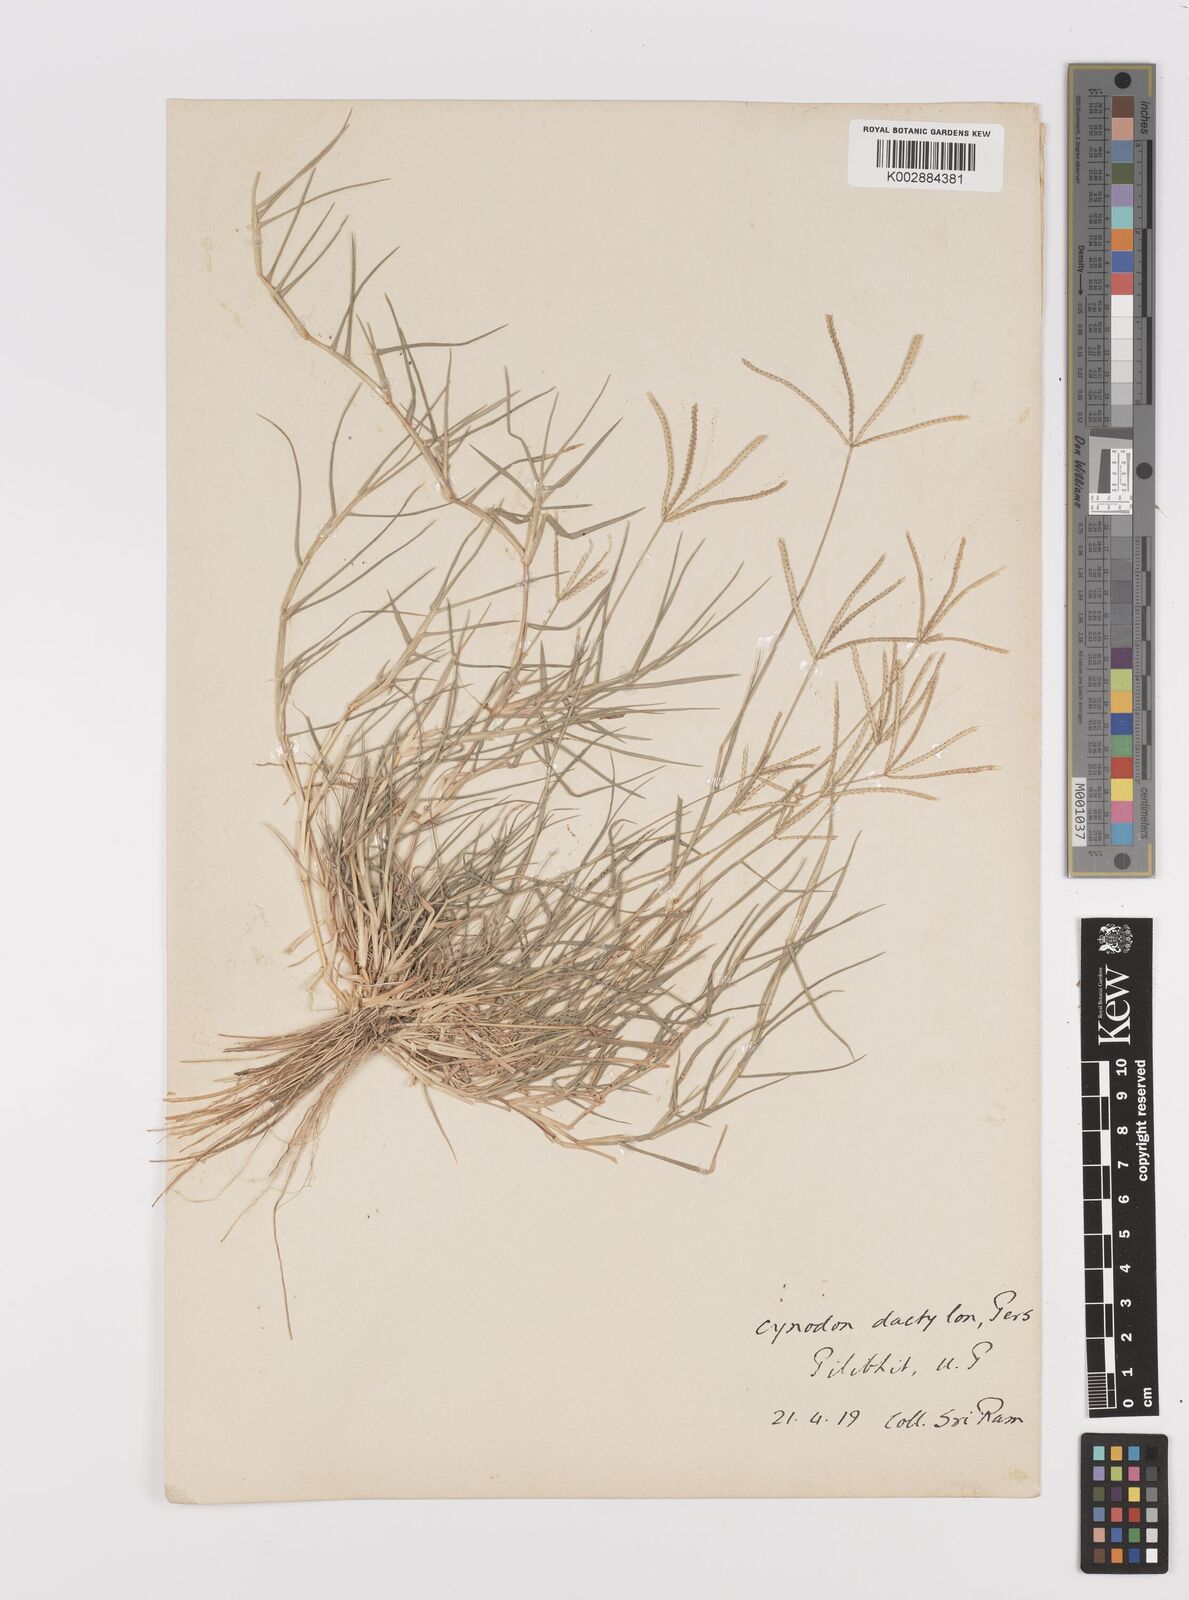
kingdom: Plantae
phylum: Tracheophyta
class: Liliopsida
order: Poales
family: Poaceae
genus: Cynodon
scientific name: Cynodon dactylon
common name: Bermuda grass
